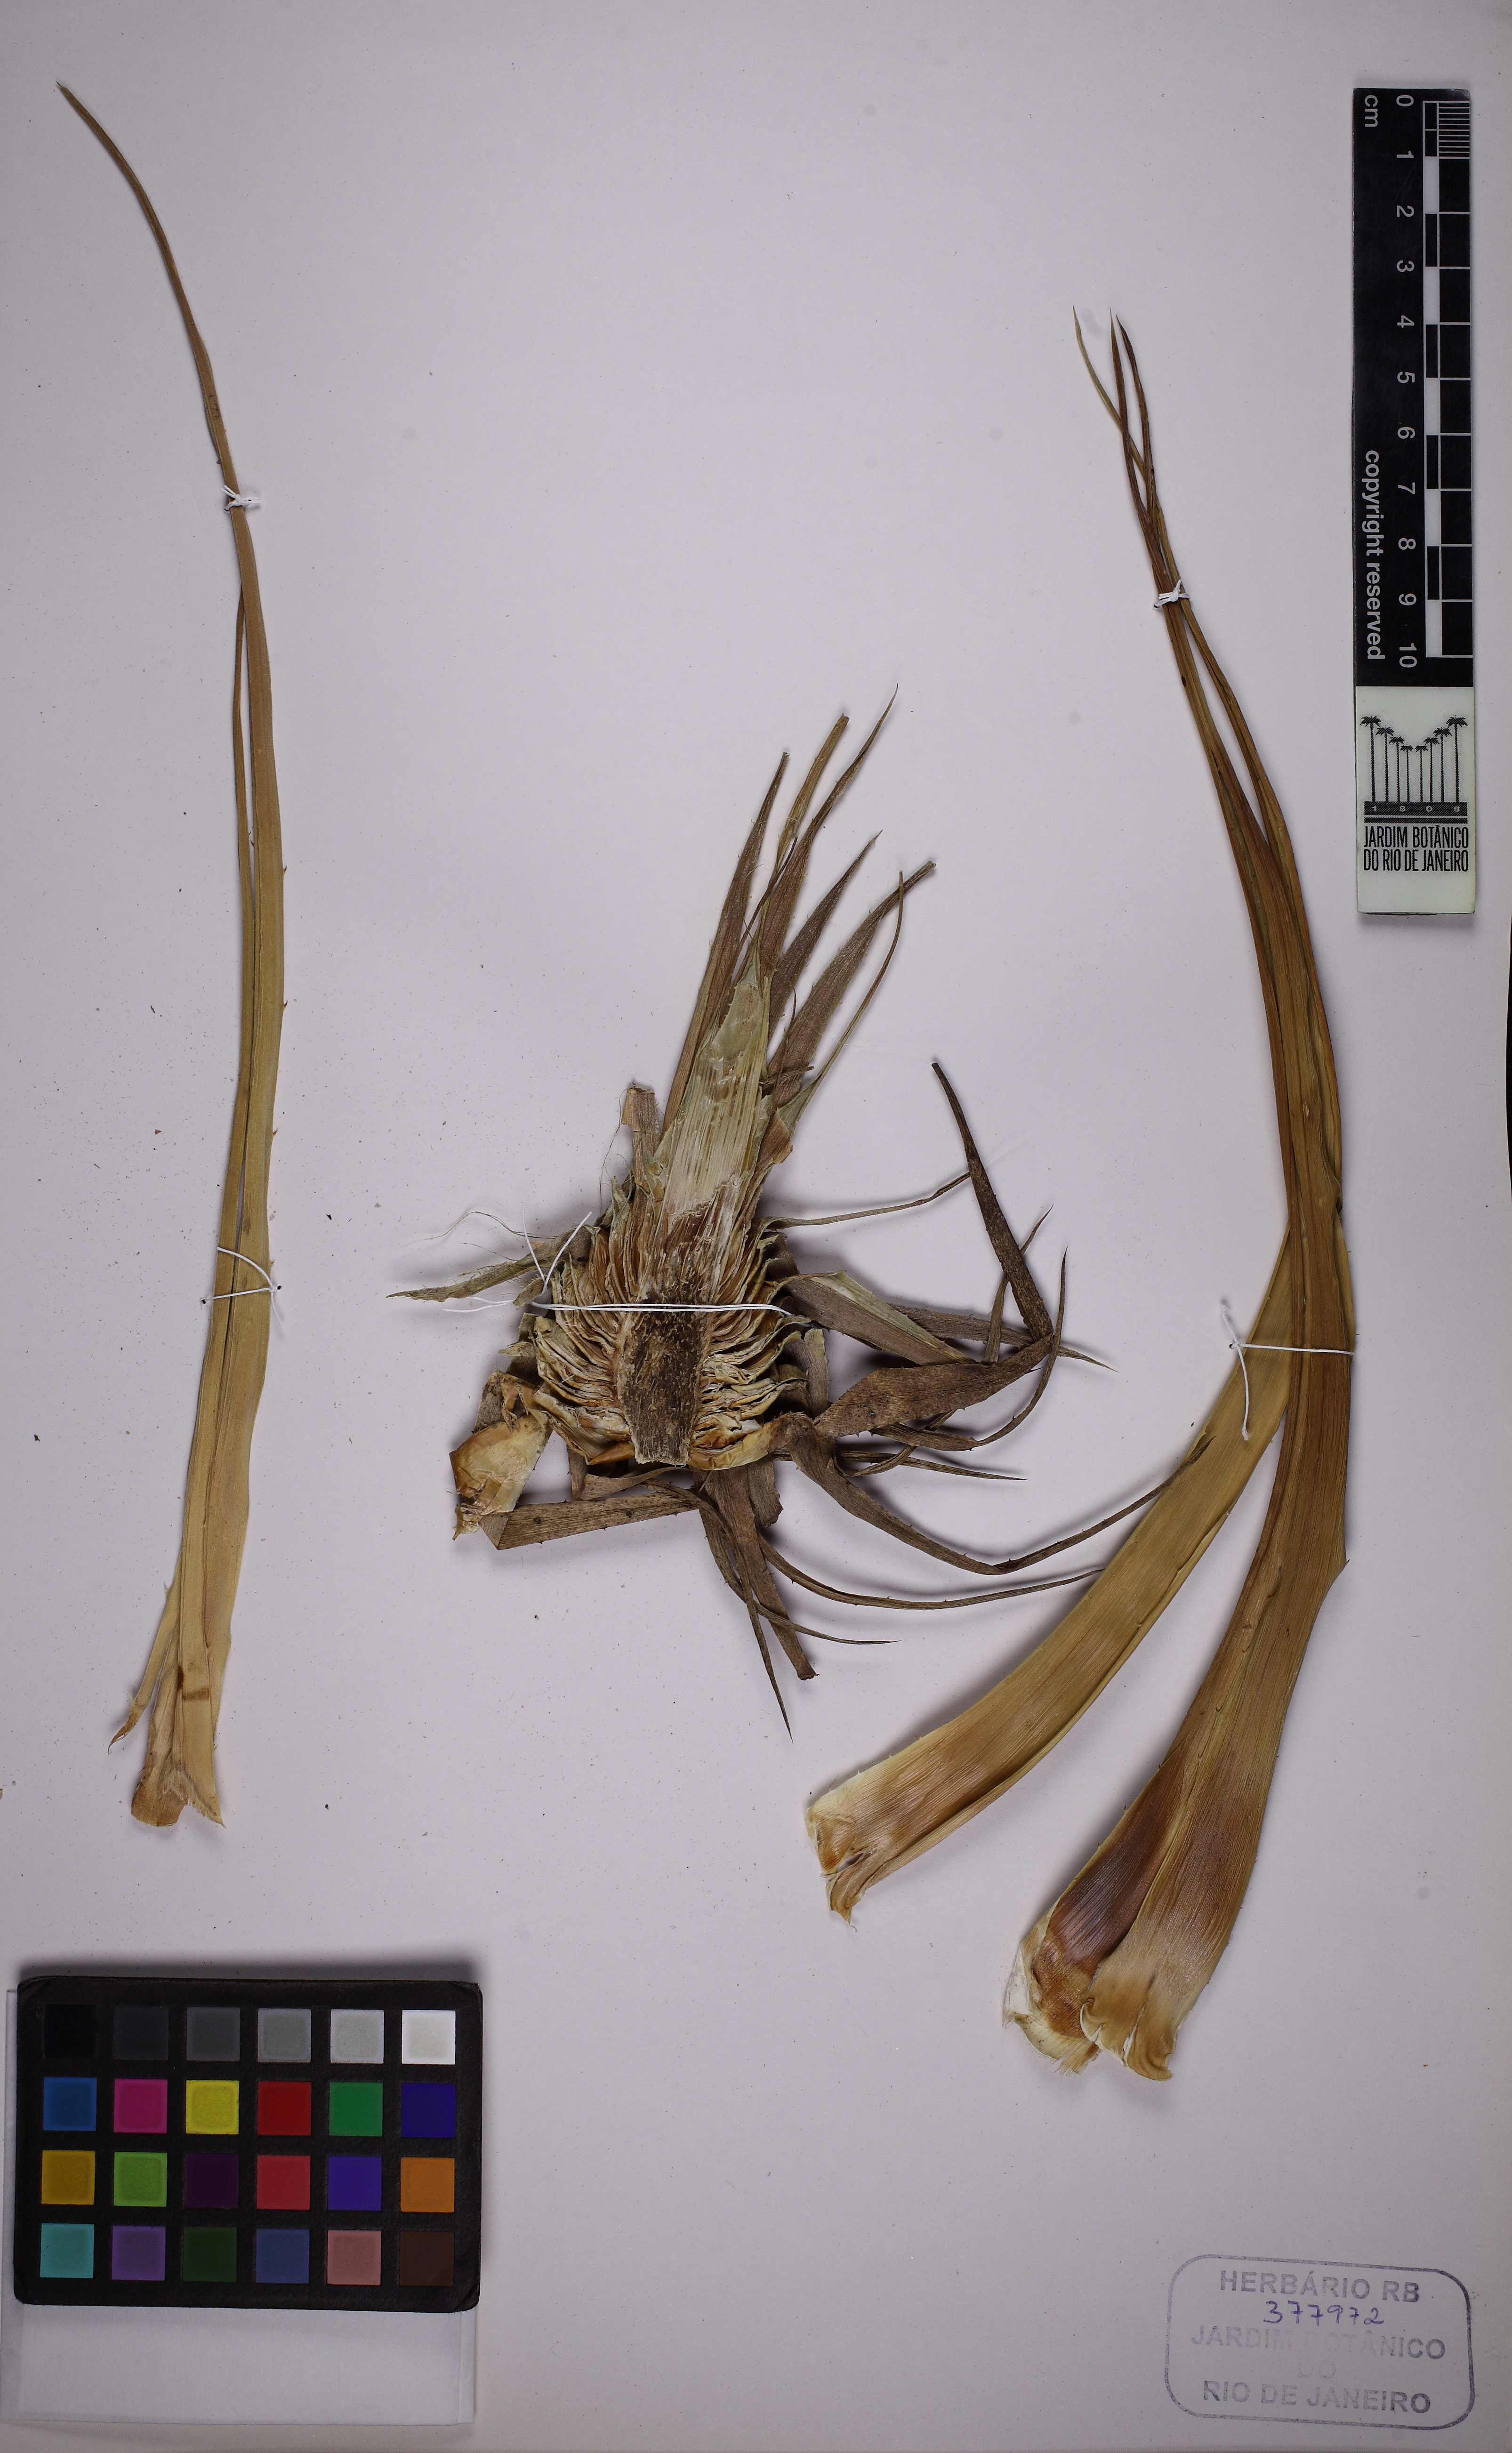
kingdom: Plantae
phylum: Tracheophyta
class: Liliopsida
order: Poales
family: Bromeliaceae
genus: Dyckia
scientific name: Dyckia minarum
